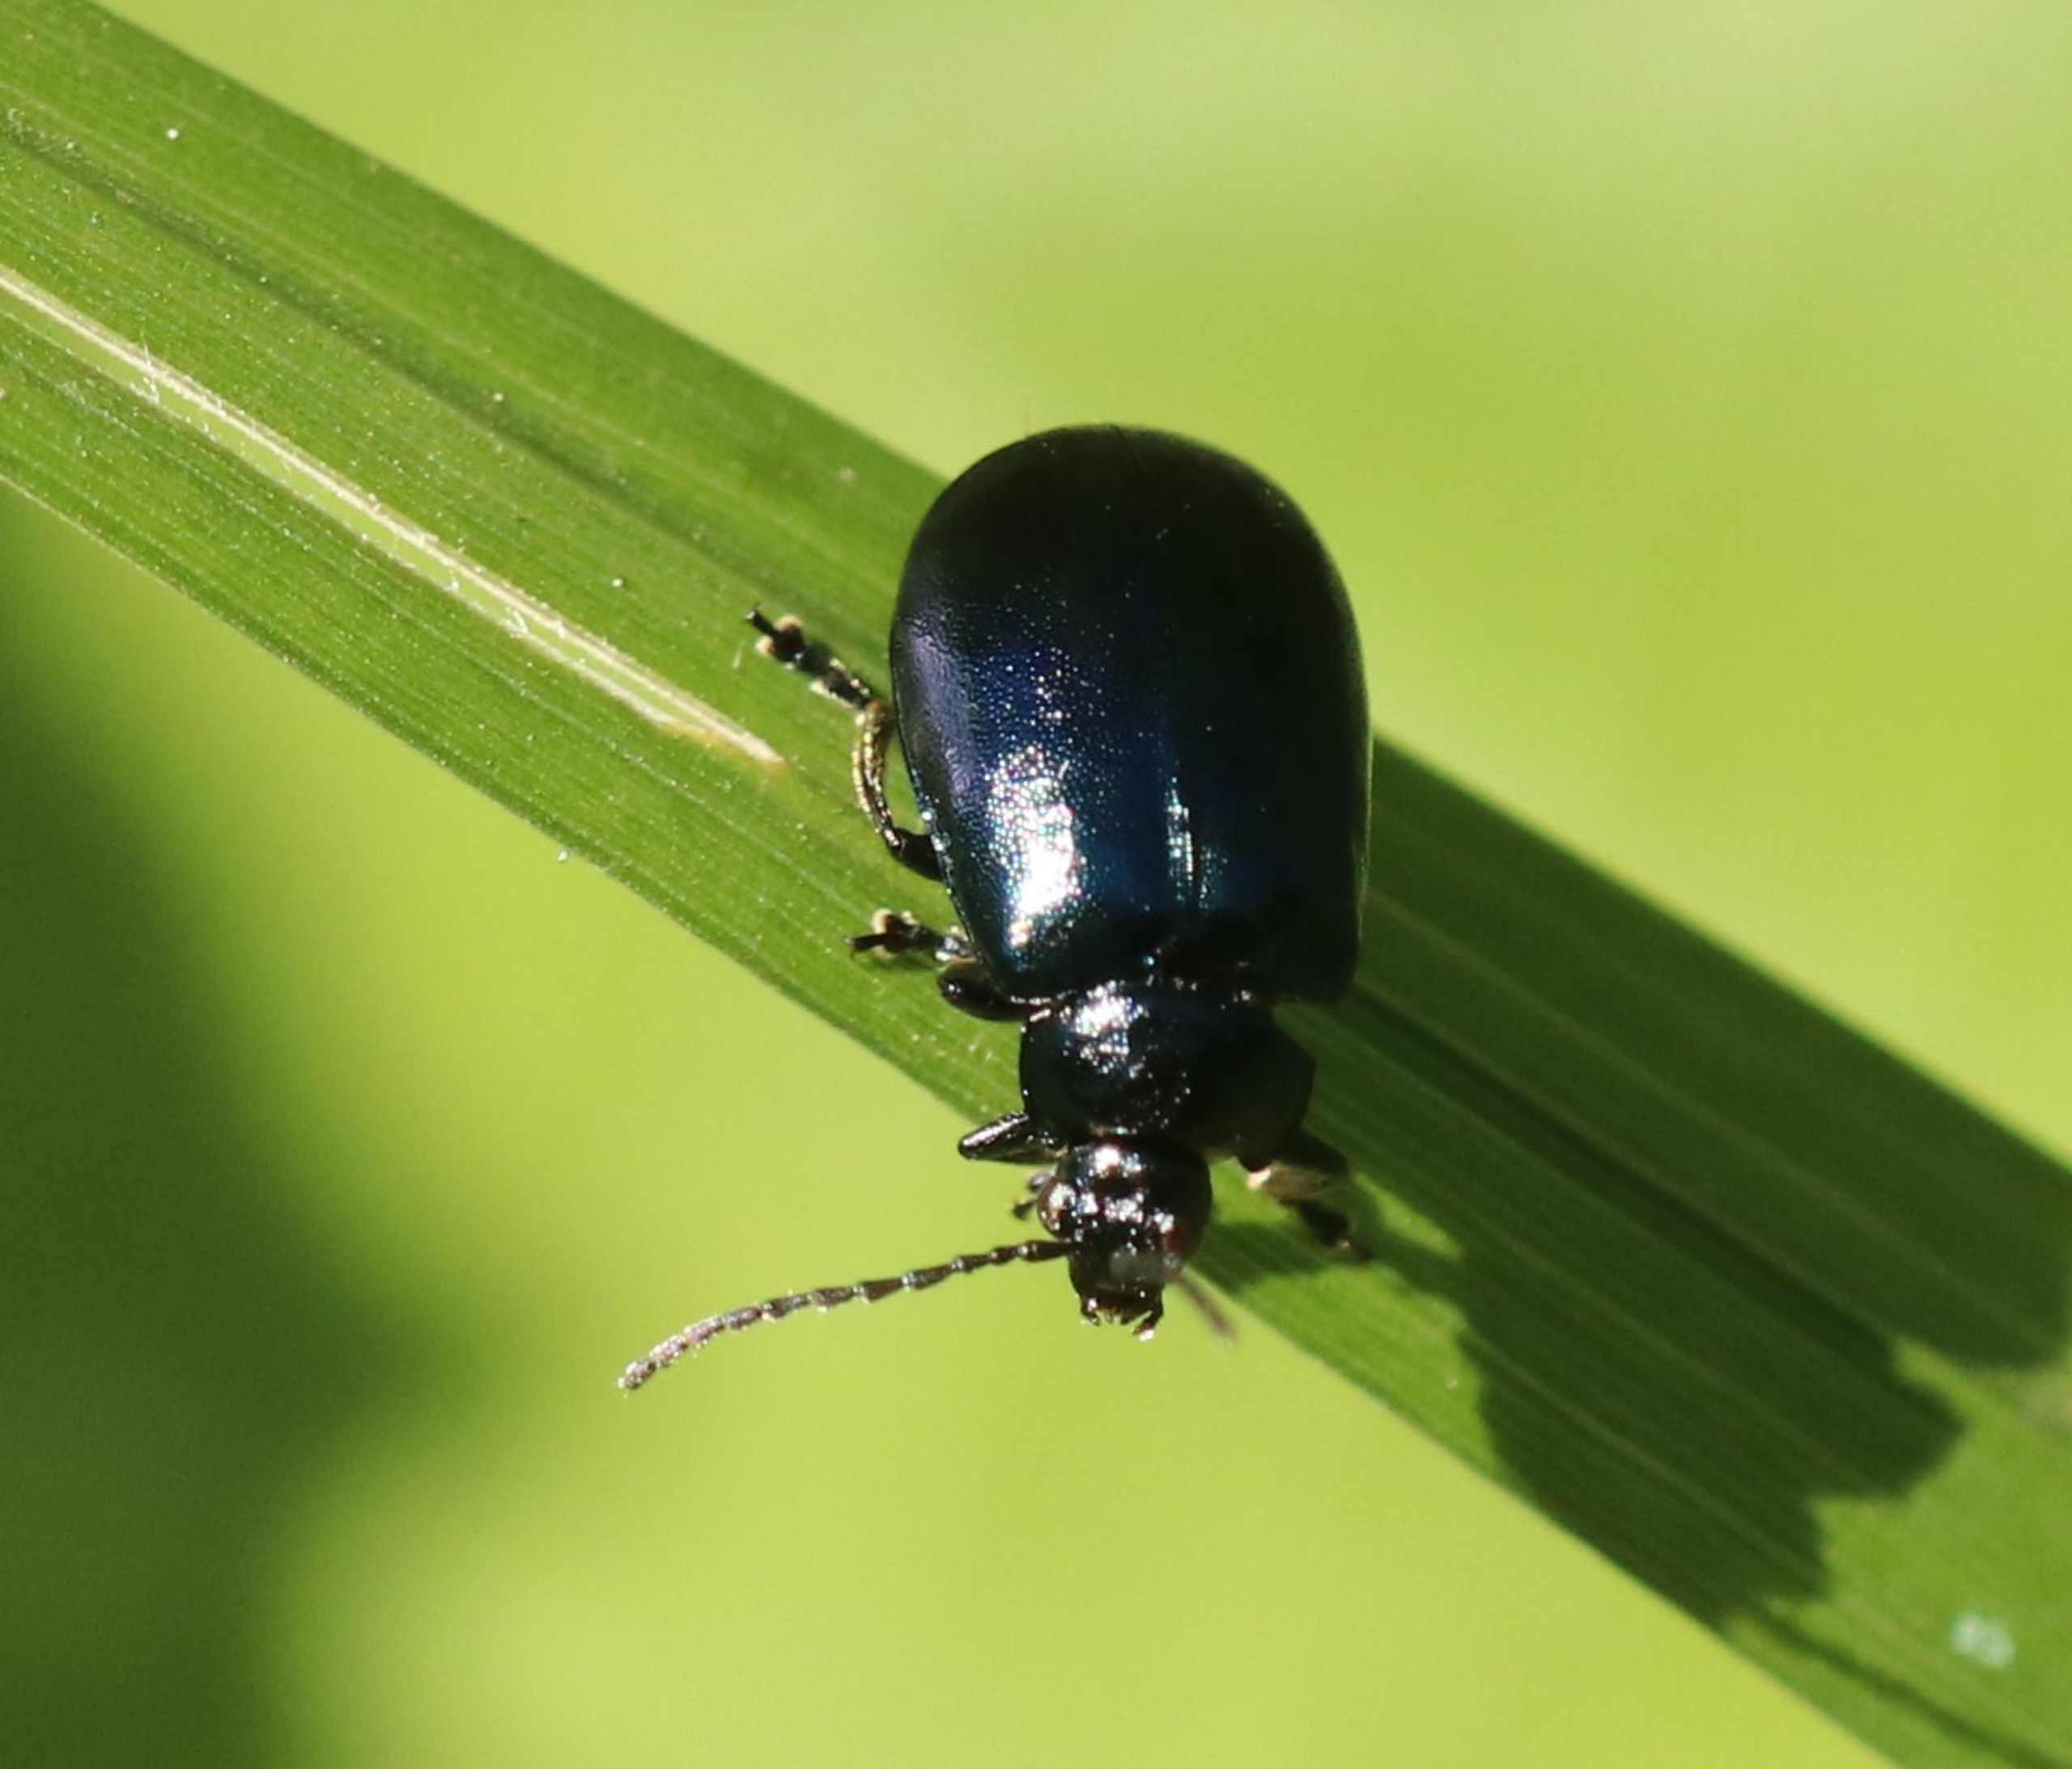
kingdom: Animalia
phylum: Arthropoda
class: Insecta
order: Coleoptera
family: Chrysomelidae
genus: Agelastica
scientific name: Agelastica alni
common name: Ellebladbille
